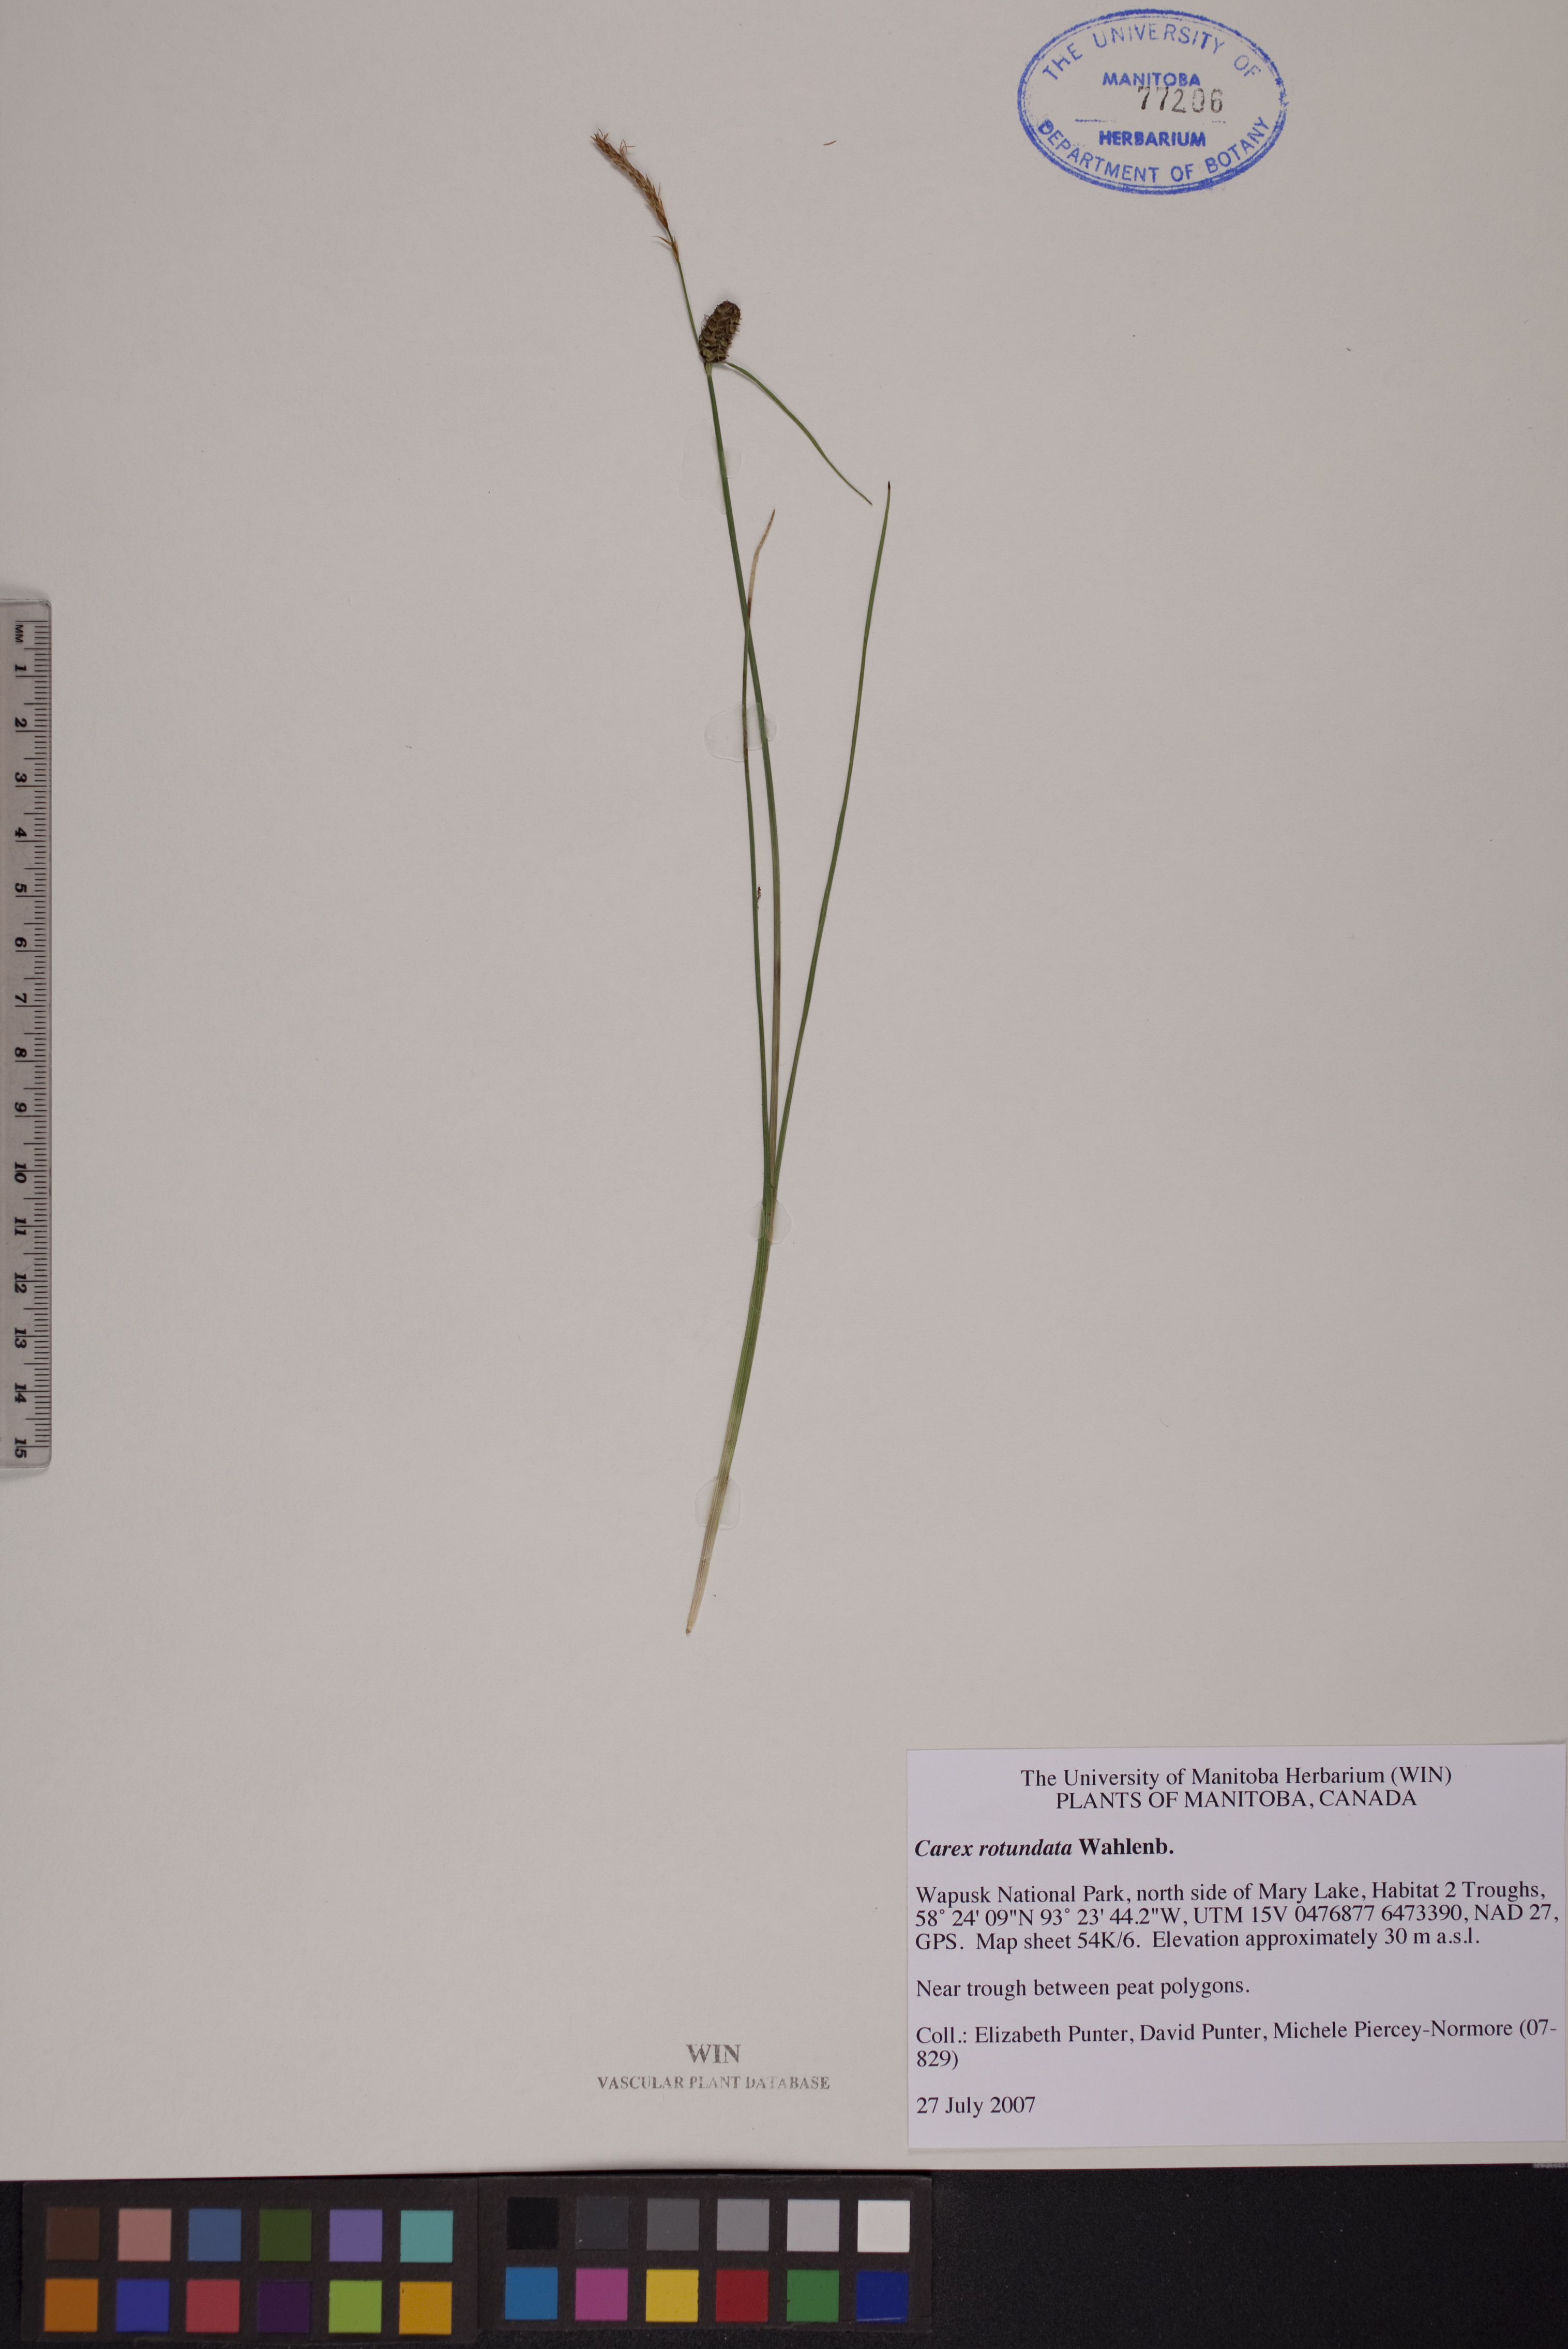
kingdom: Plantae
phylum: Tracheophyta
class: Liliopsida
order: Poales
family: Cyperaceae
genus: Carex
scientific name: Carex rotundata
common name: Round-fruited sedge
